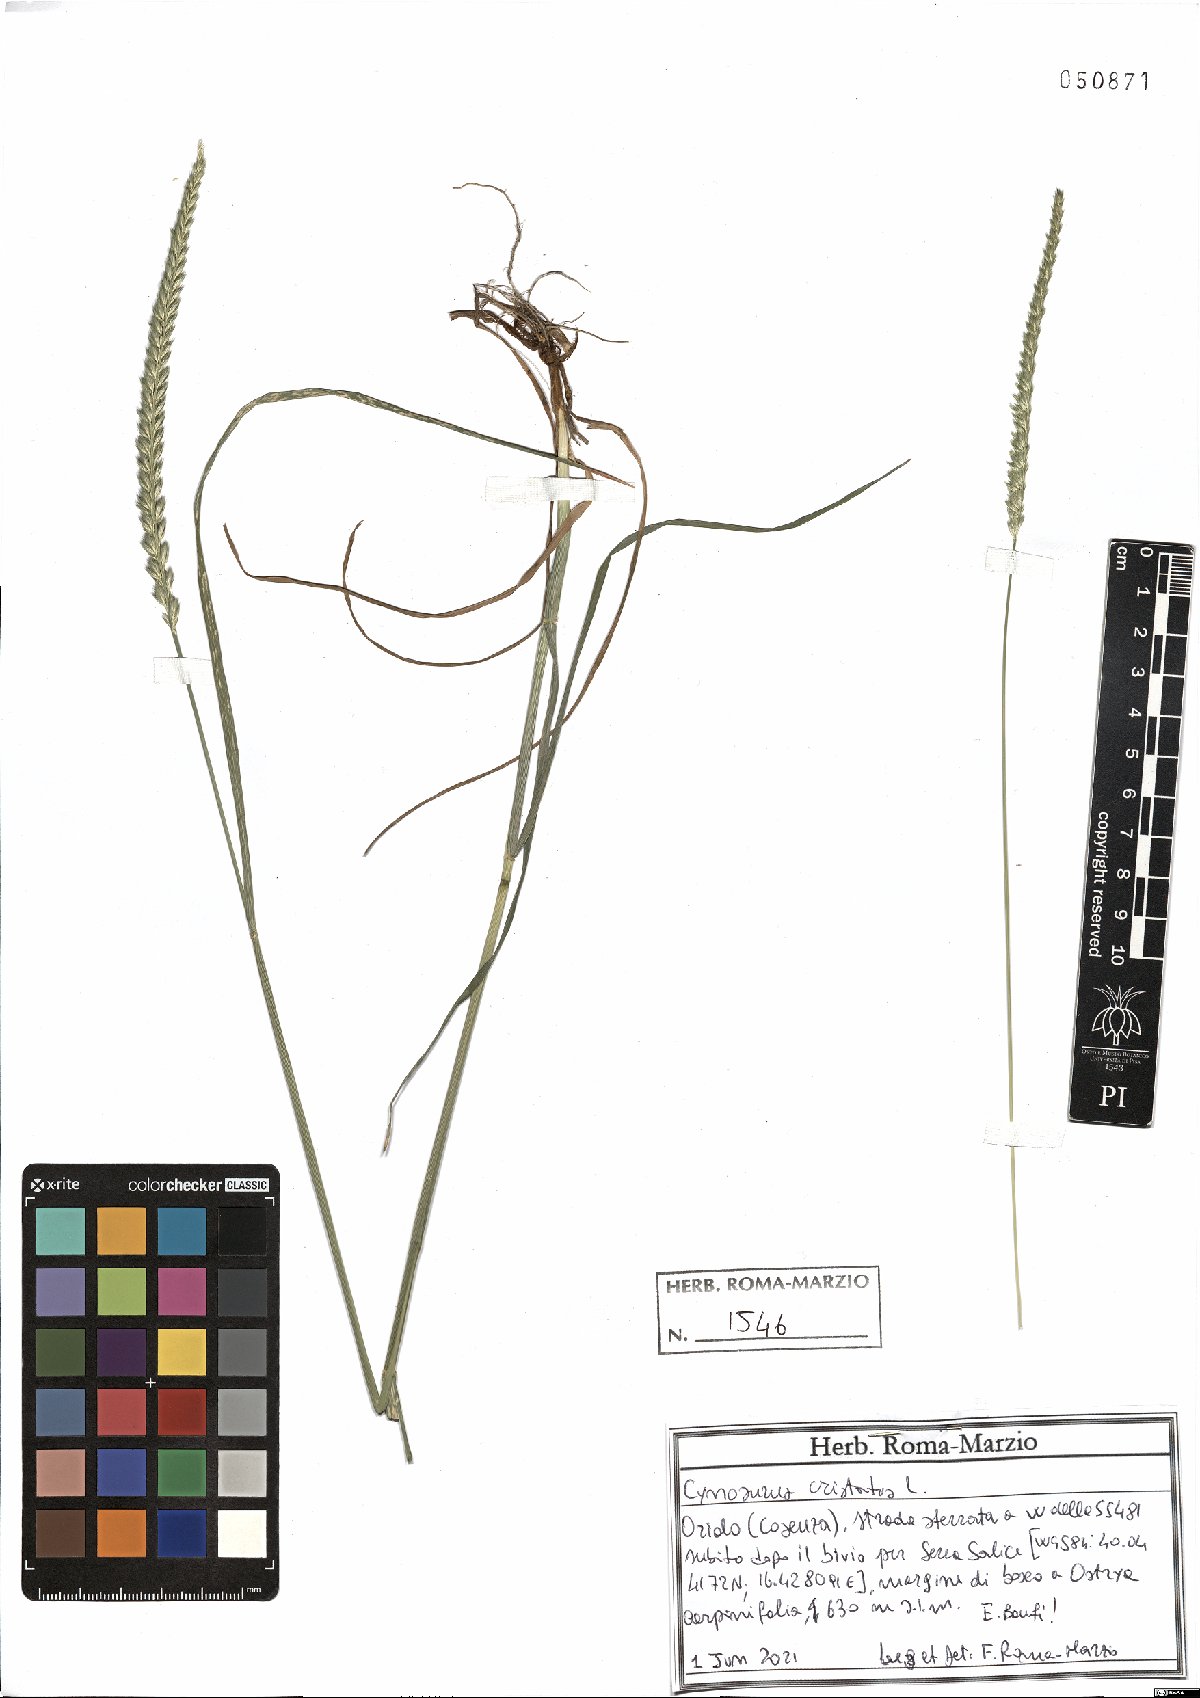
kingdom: Plantae
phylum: Tracheophyta
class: Liliopsida
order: Poales
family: Poaceae
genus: Cynosurus
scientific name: Cynosurus cristatus
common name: Crested dog's-tail
